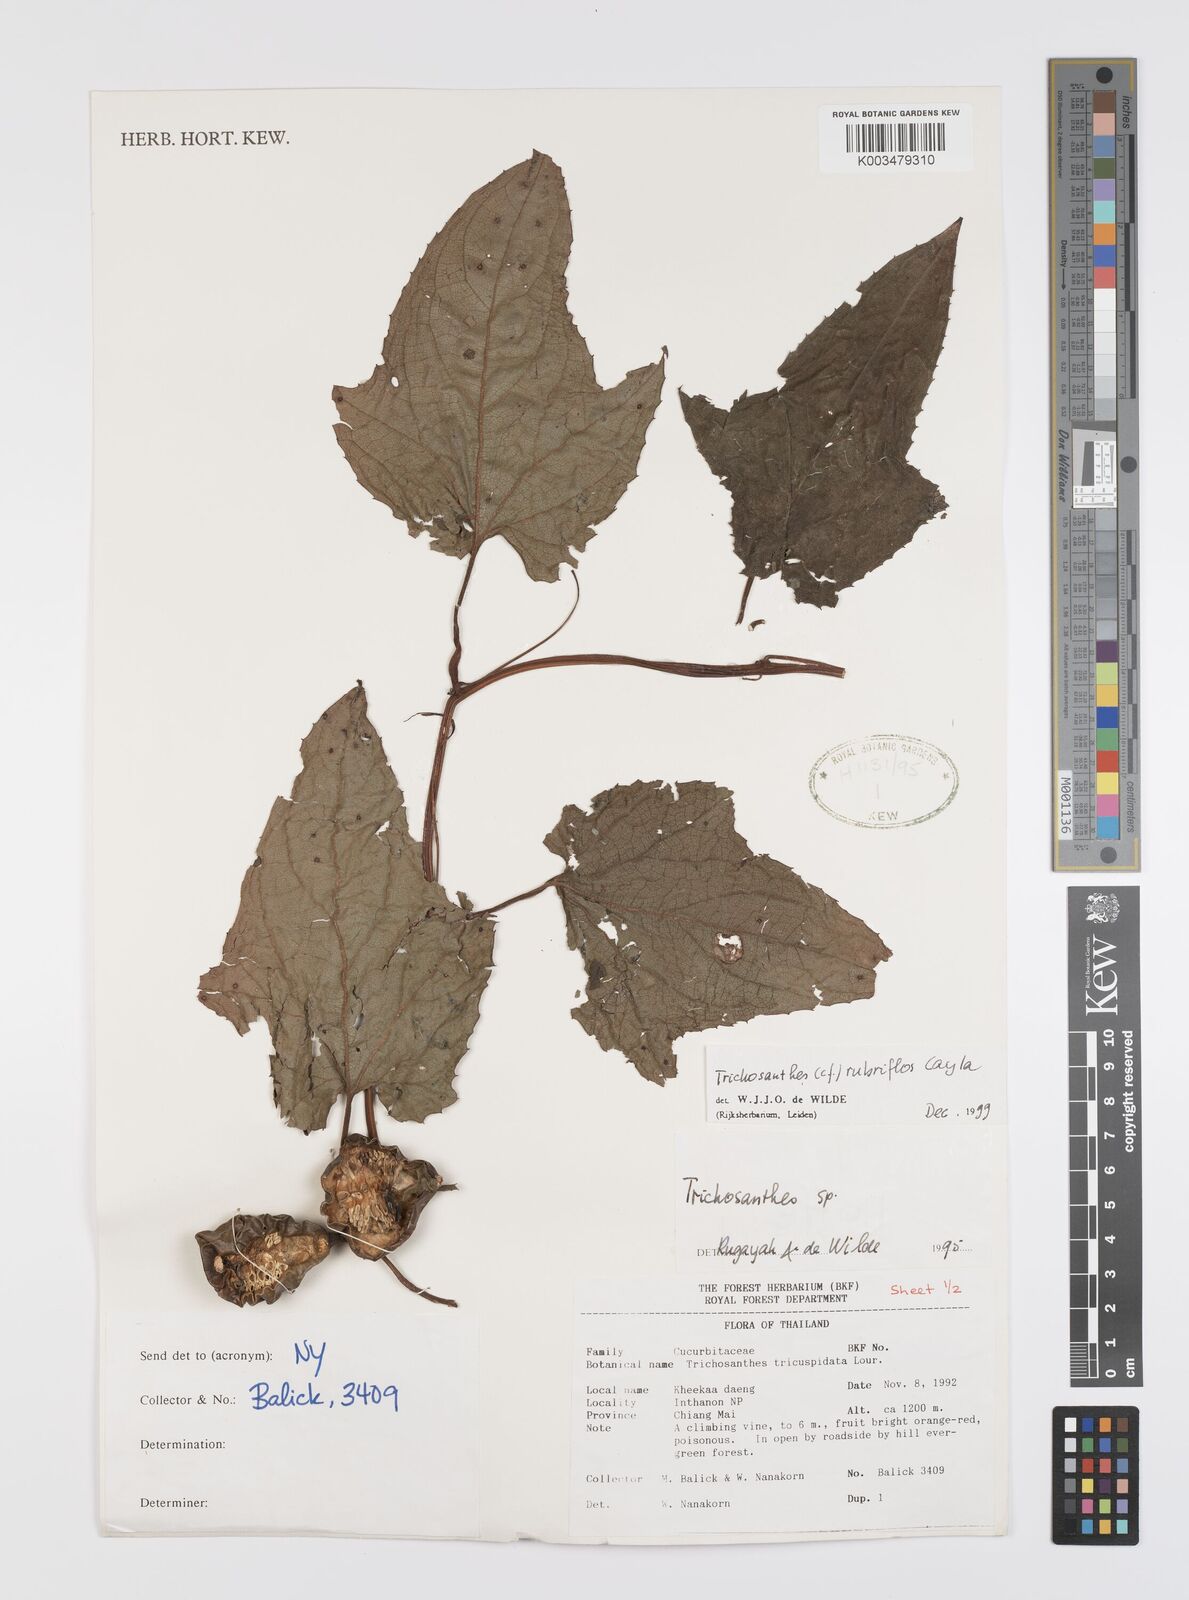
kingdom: Plantae
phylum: Tracheophyta
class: Magnoliopsida
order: Cucurbitales
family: Cucurbitaceae
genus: Trichosanthes
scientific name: Trichosanthes rubriflos
